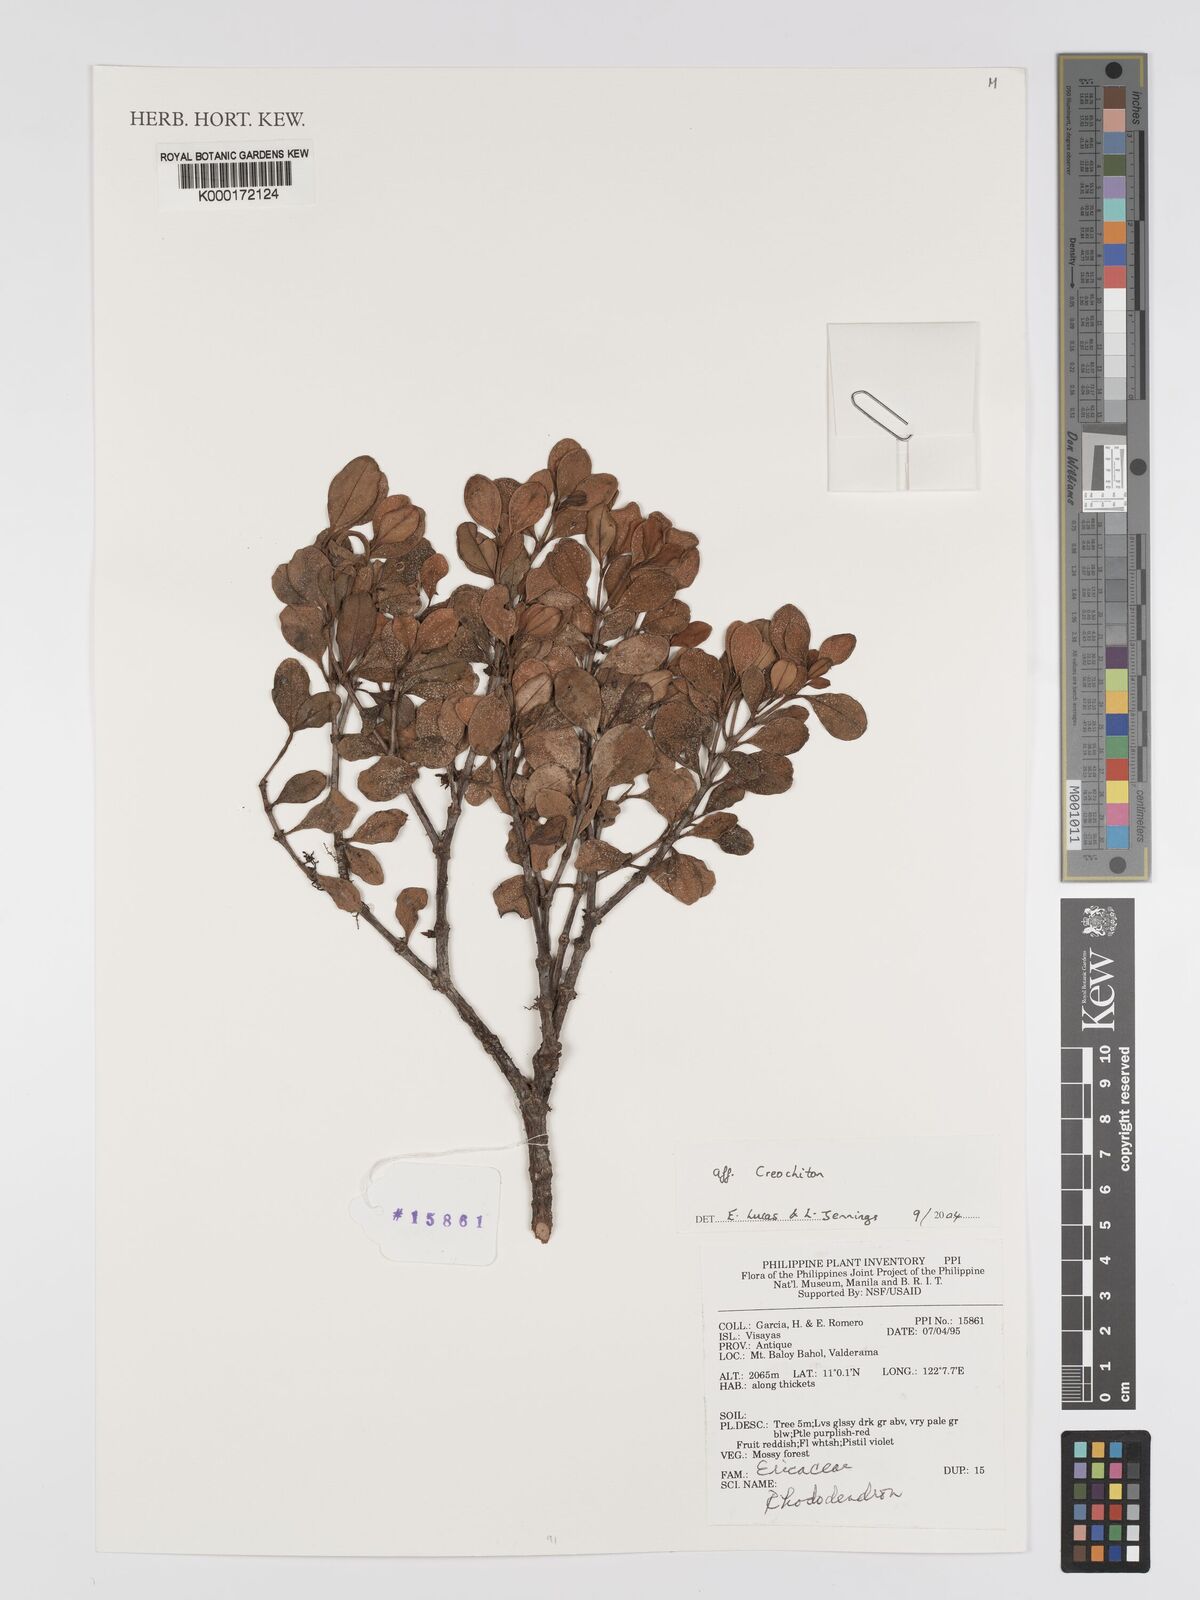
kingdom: Plantae
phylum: Tracheophyta
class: Magnoliopsida
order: Myrtales
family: Melastomataceae
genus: Creochiton
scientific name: Creochiton
